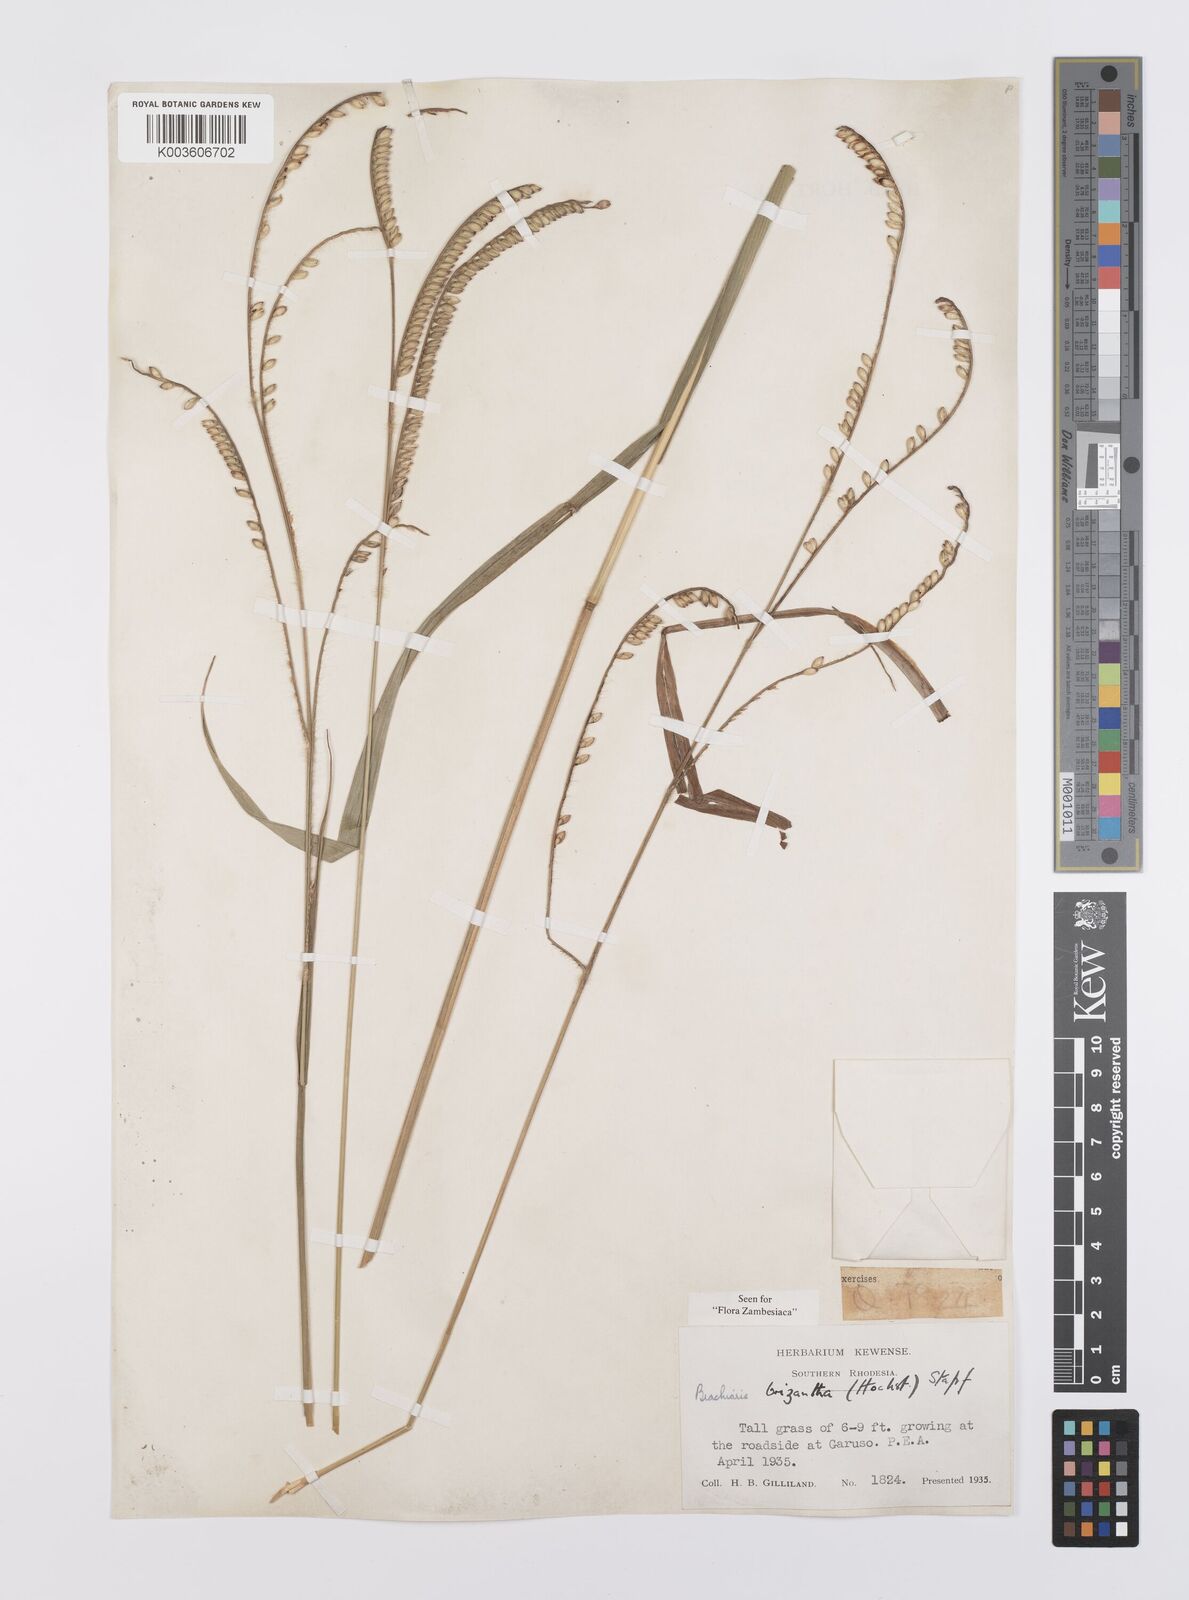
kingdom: Plantae
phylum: Tracheophyta
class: Liliopsida
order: Poales
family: Poaceae
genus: Urochloa
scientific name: Urochloa brizantha
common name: Palisade signalgrass
